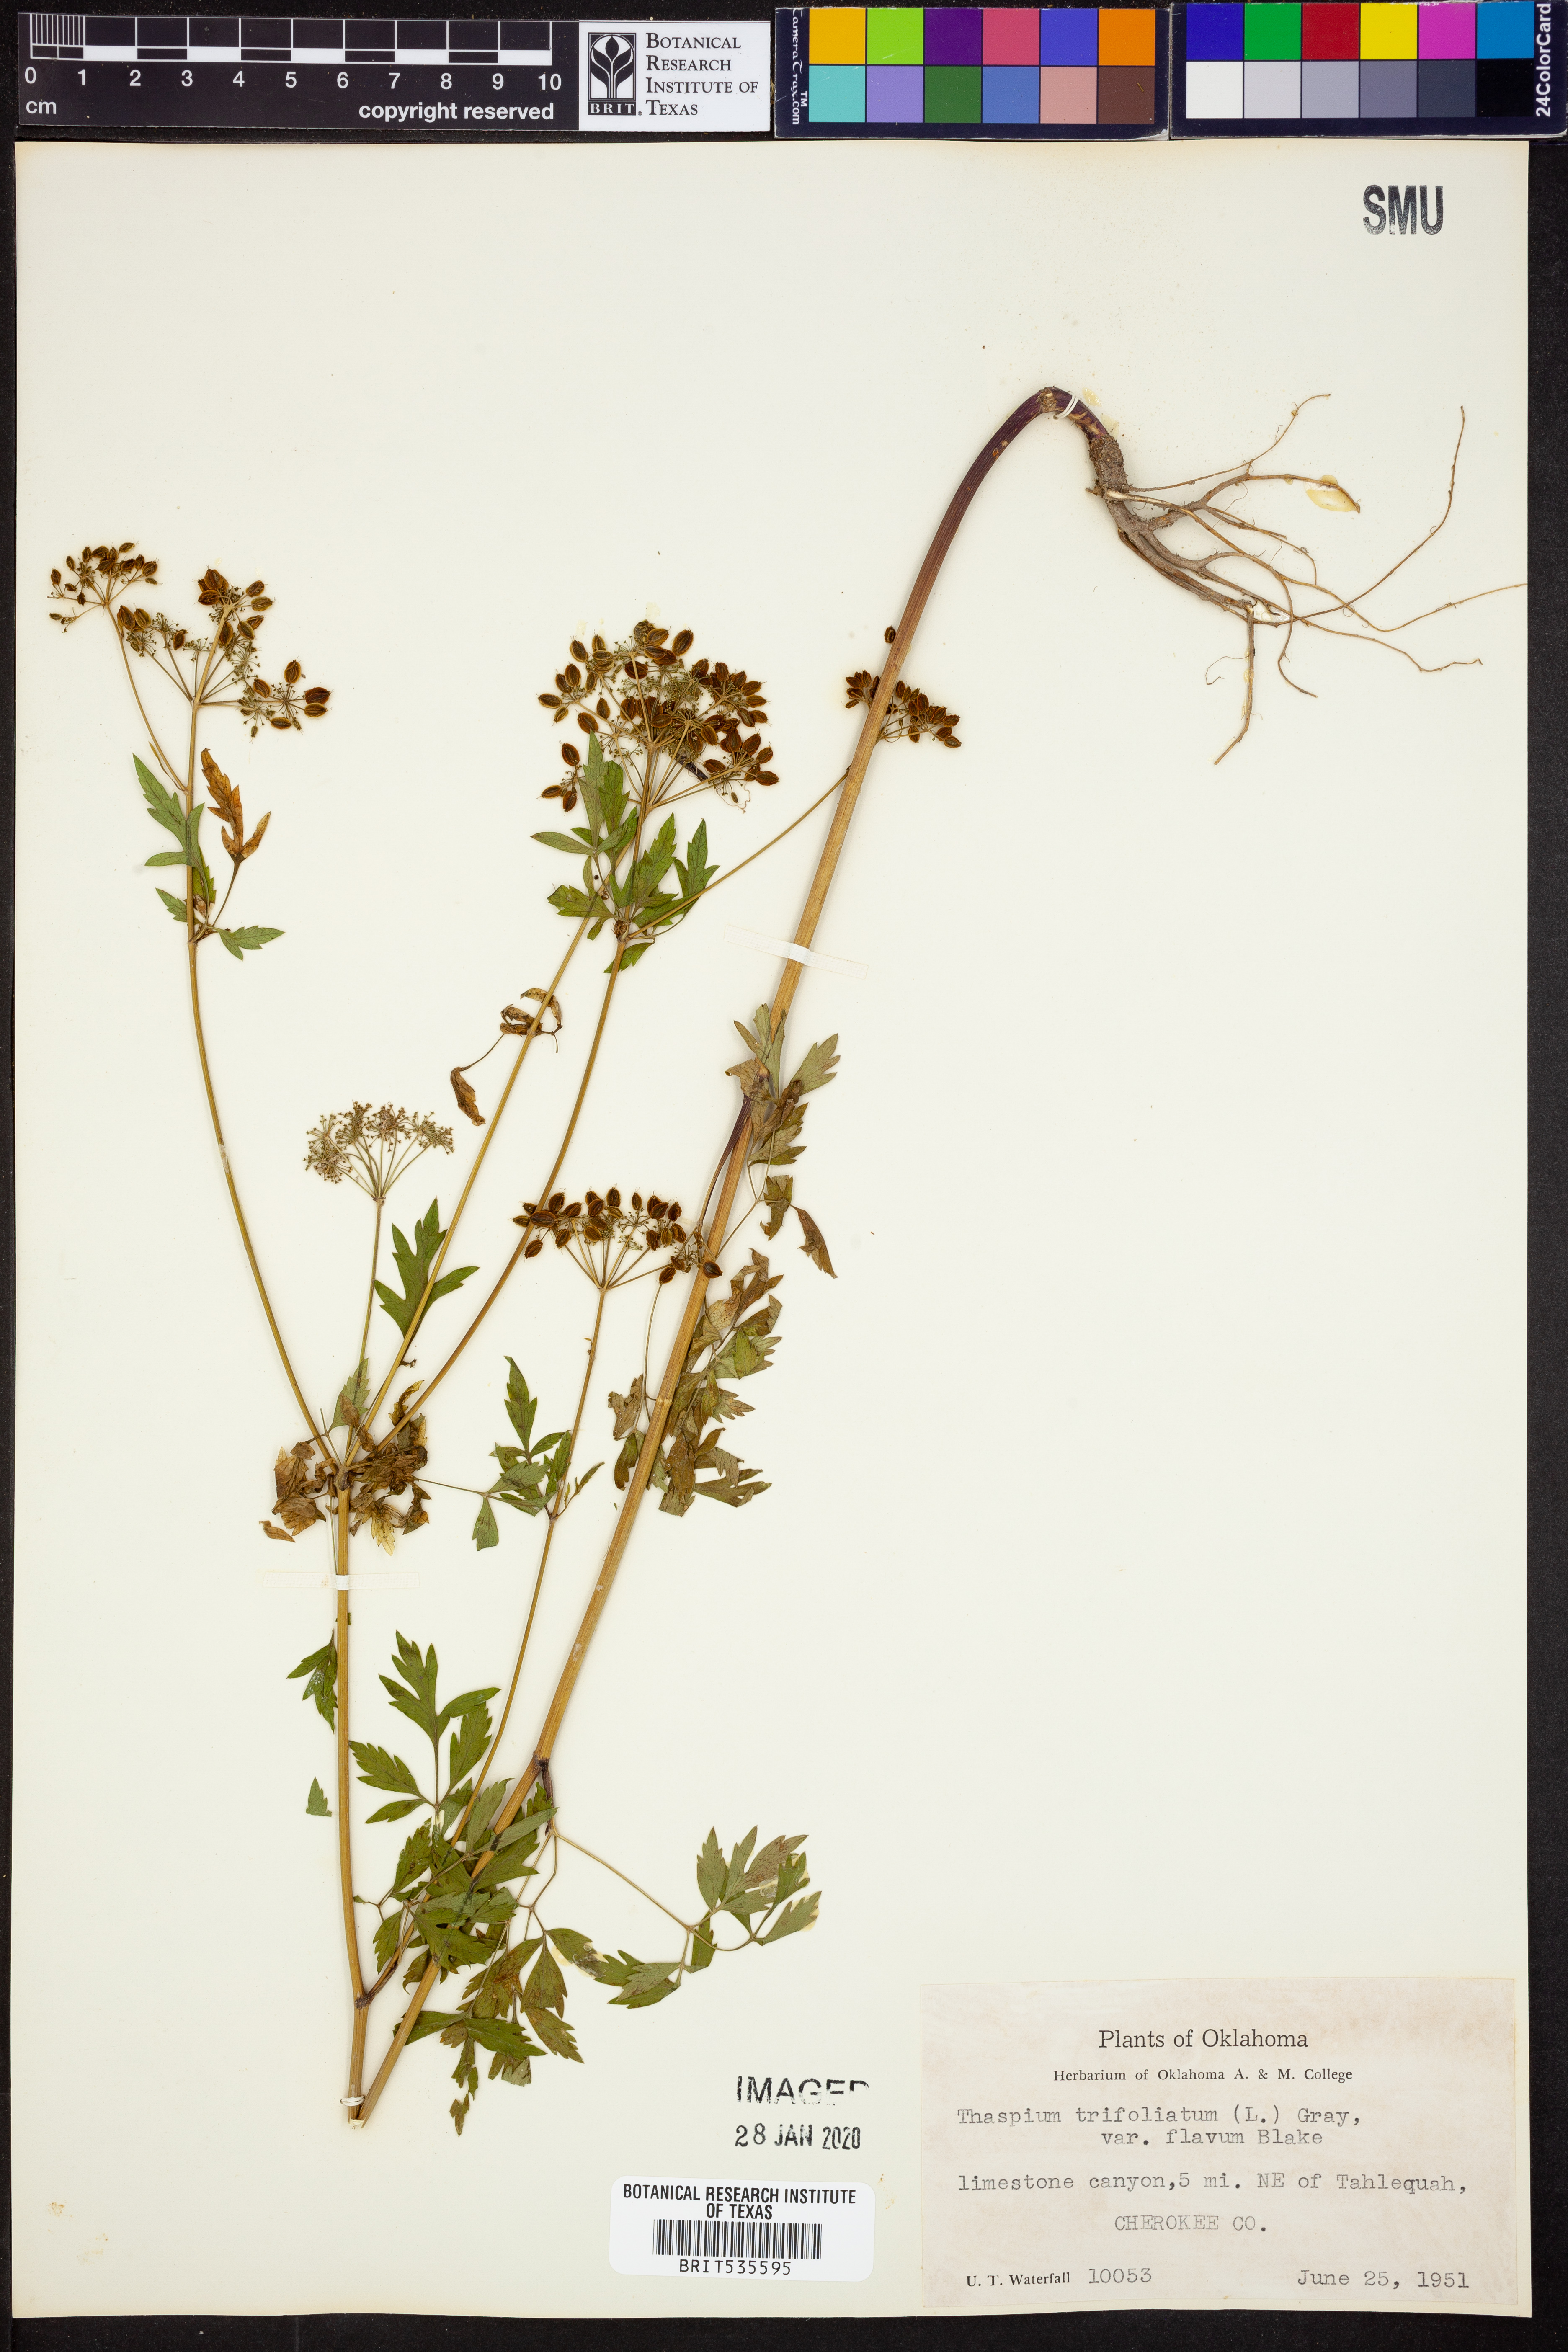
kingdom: Plantae
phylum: Tracheophyta
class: Magnoliopsida
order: Apiales
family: Apiaceae
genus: Thaspium
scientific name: Thaspium trifoliatum
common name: Purple meadow-parsnip
